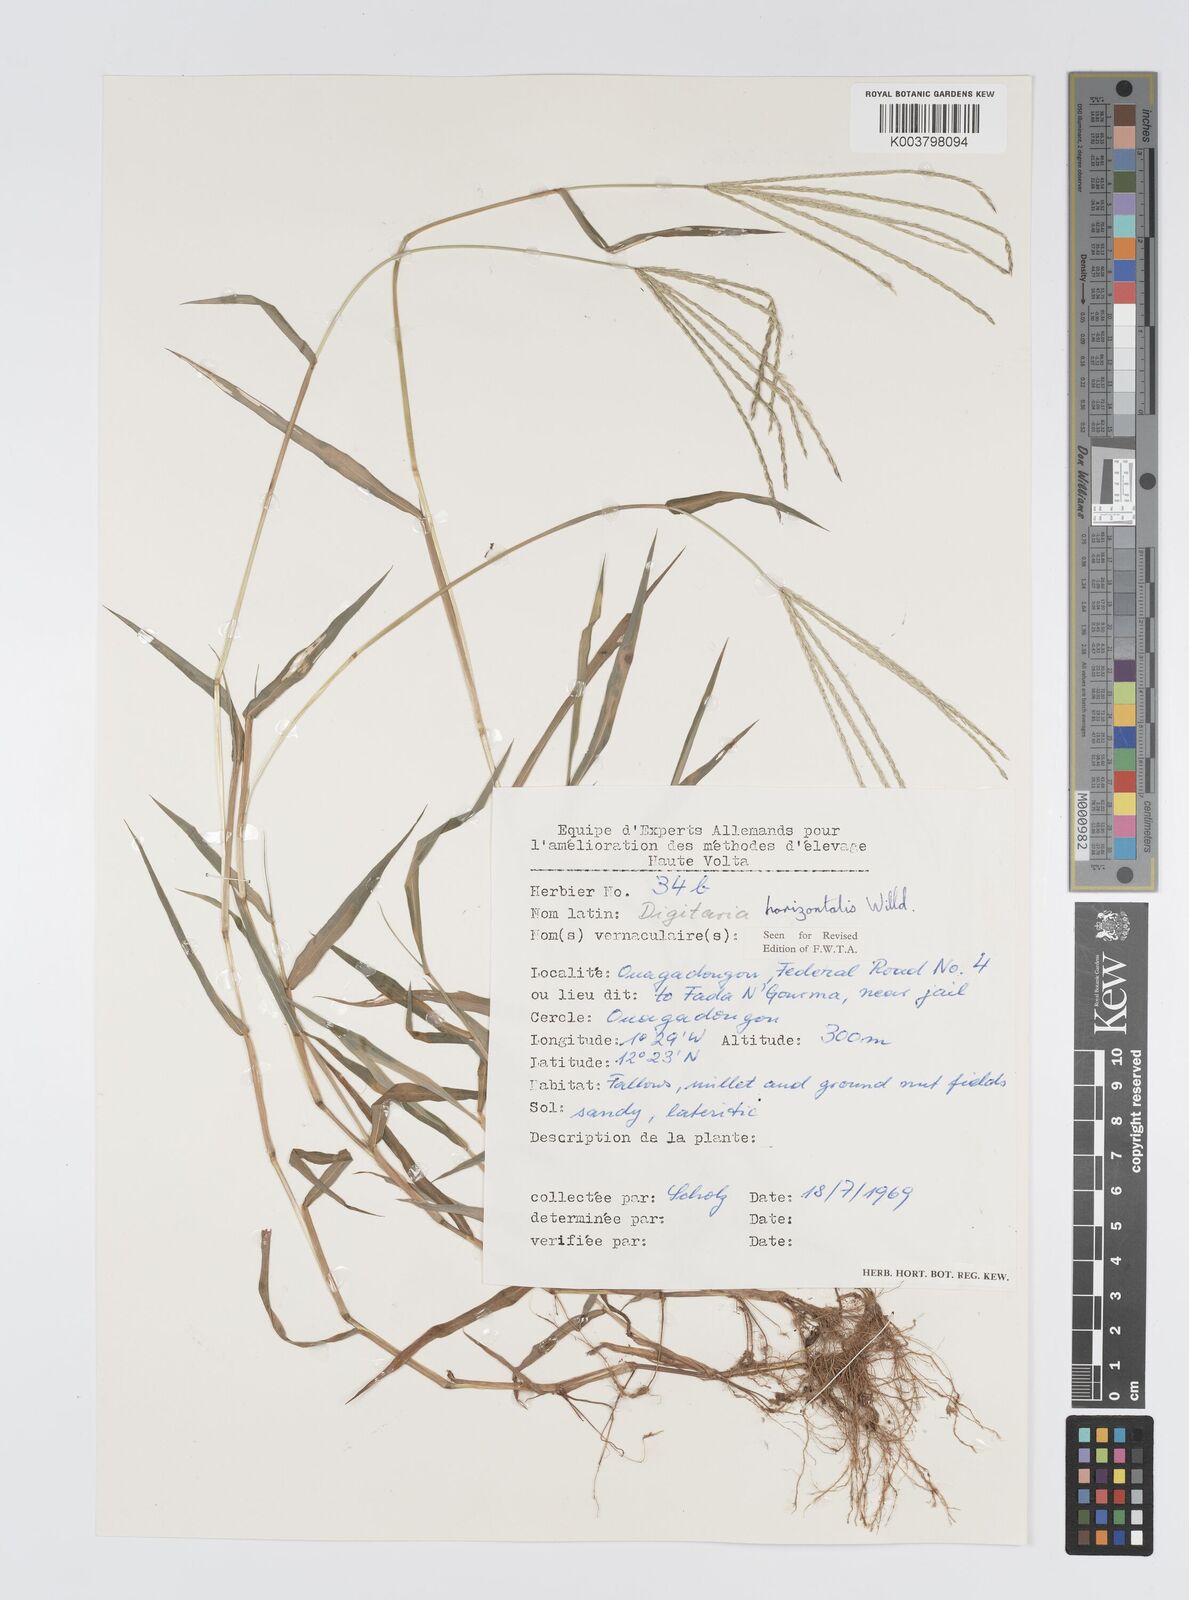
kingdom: Plantae
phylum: Tracheophyta
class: Liliopsida
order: Poales
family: Poaceae
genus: Digitaria
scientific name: Digitaria horizontalis
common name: Jamaican crabgrass
